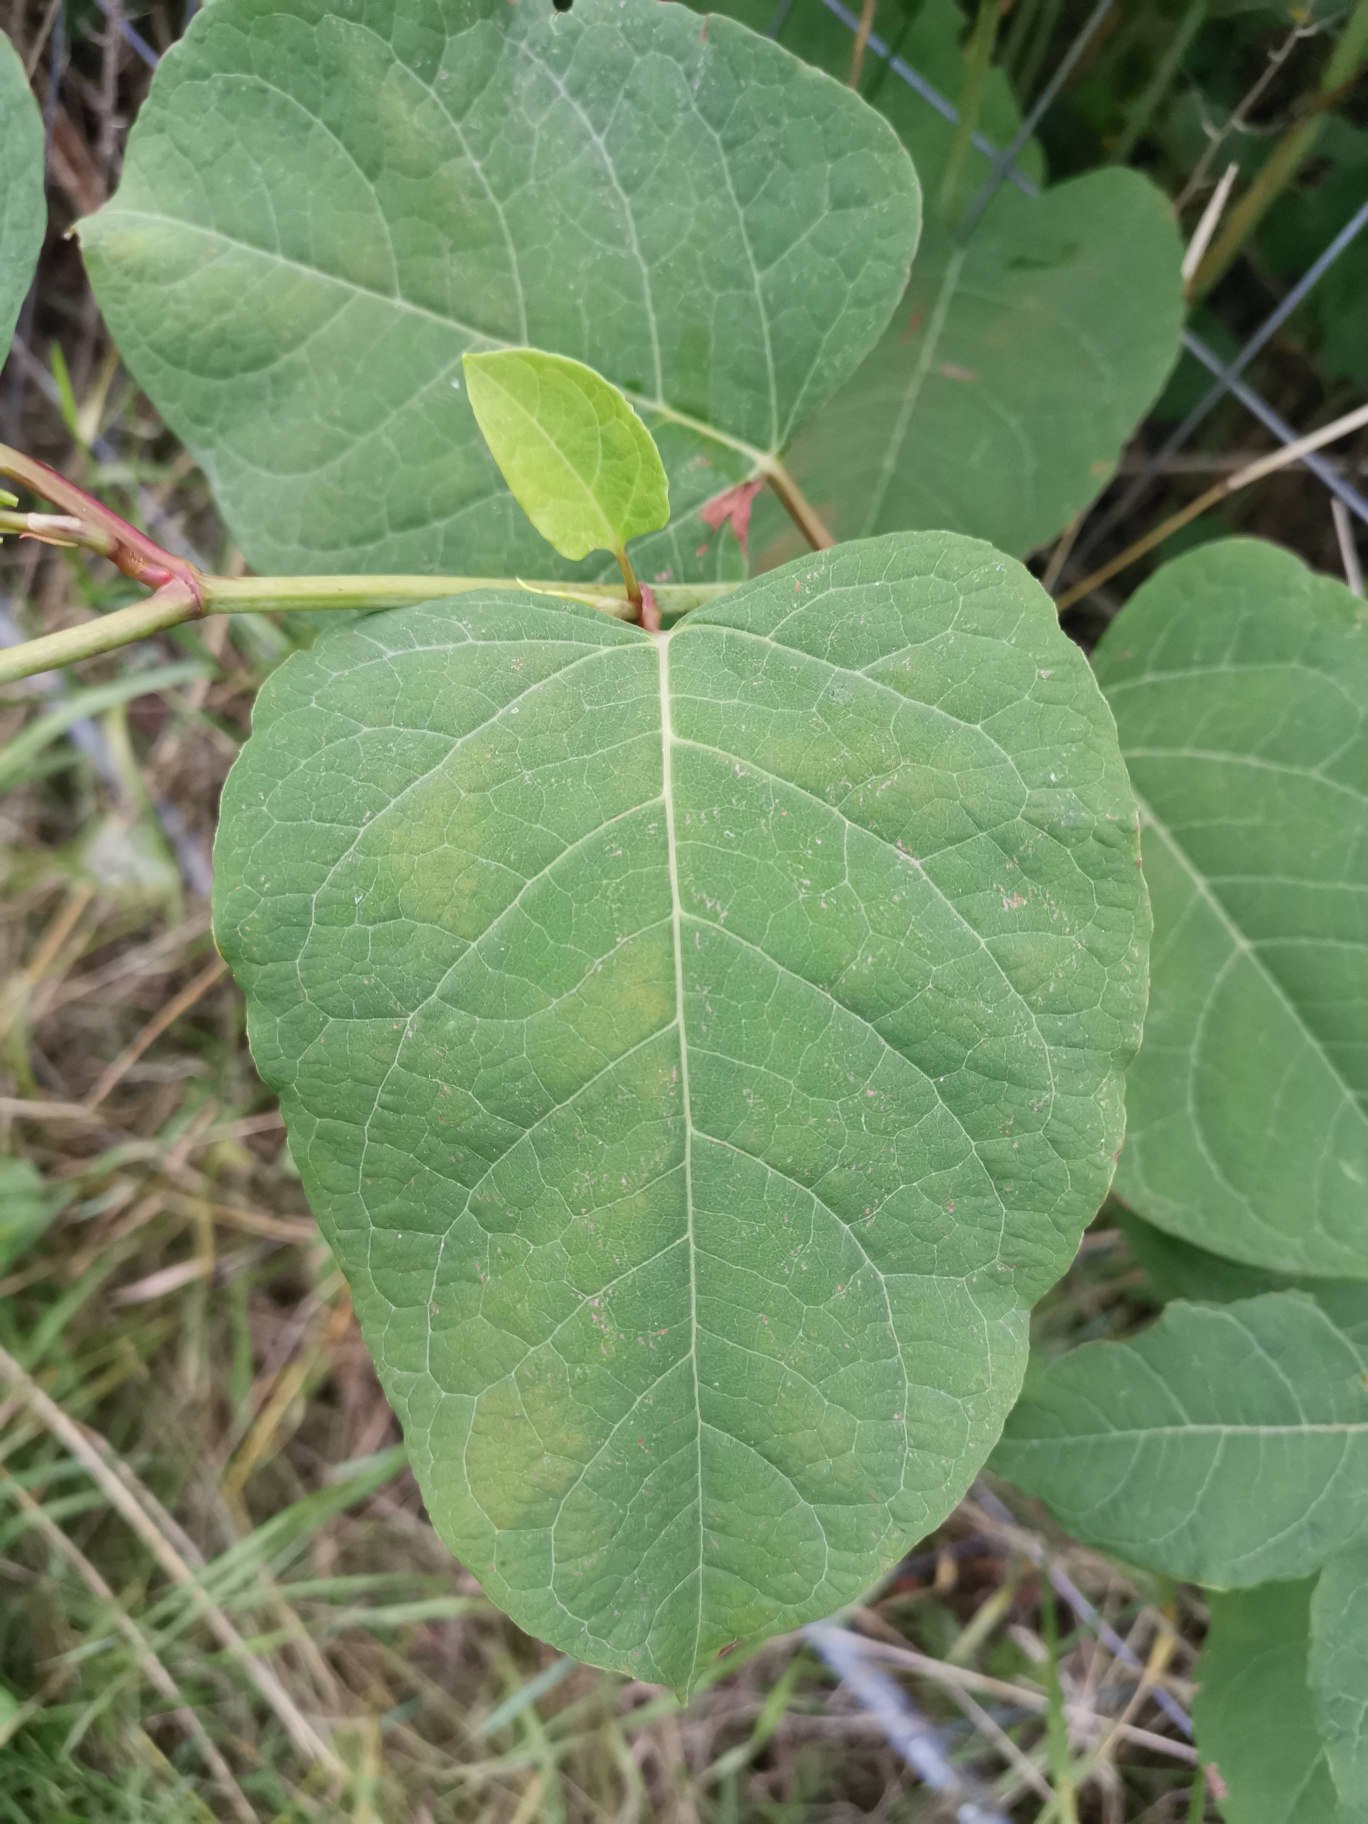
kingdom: Plantae
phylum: Tracheophyta
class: Magnoliopsida
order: Caryophyllales
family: Polygonaceae
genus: Reynoutria
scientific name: Reynoutria bohemica
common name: Hybrid-pileurt
